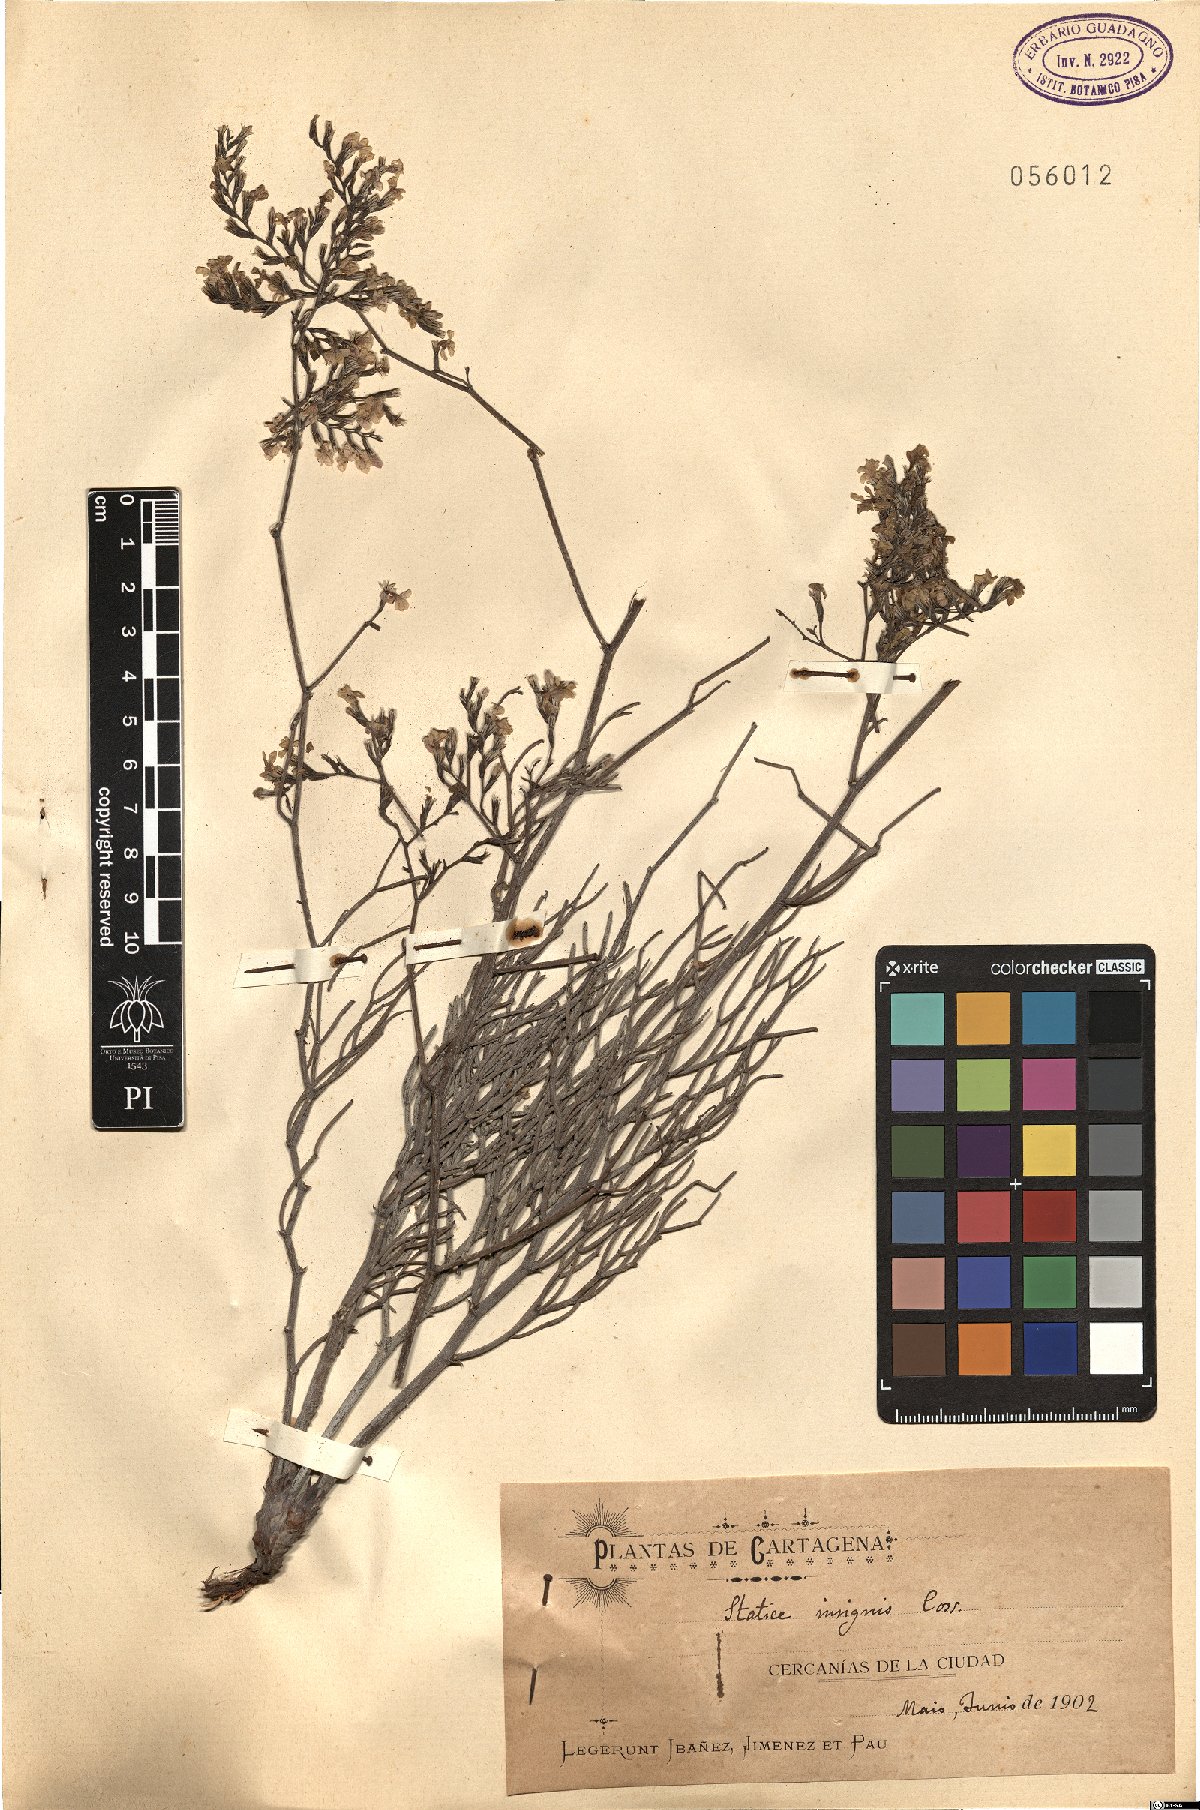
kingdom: Plantae
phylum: Tracheophyta
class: Magnoliopsida
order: Caryophyllales
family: Plumbaginaceae
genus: Limonium
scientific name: Limonium insigne
